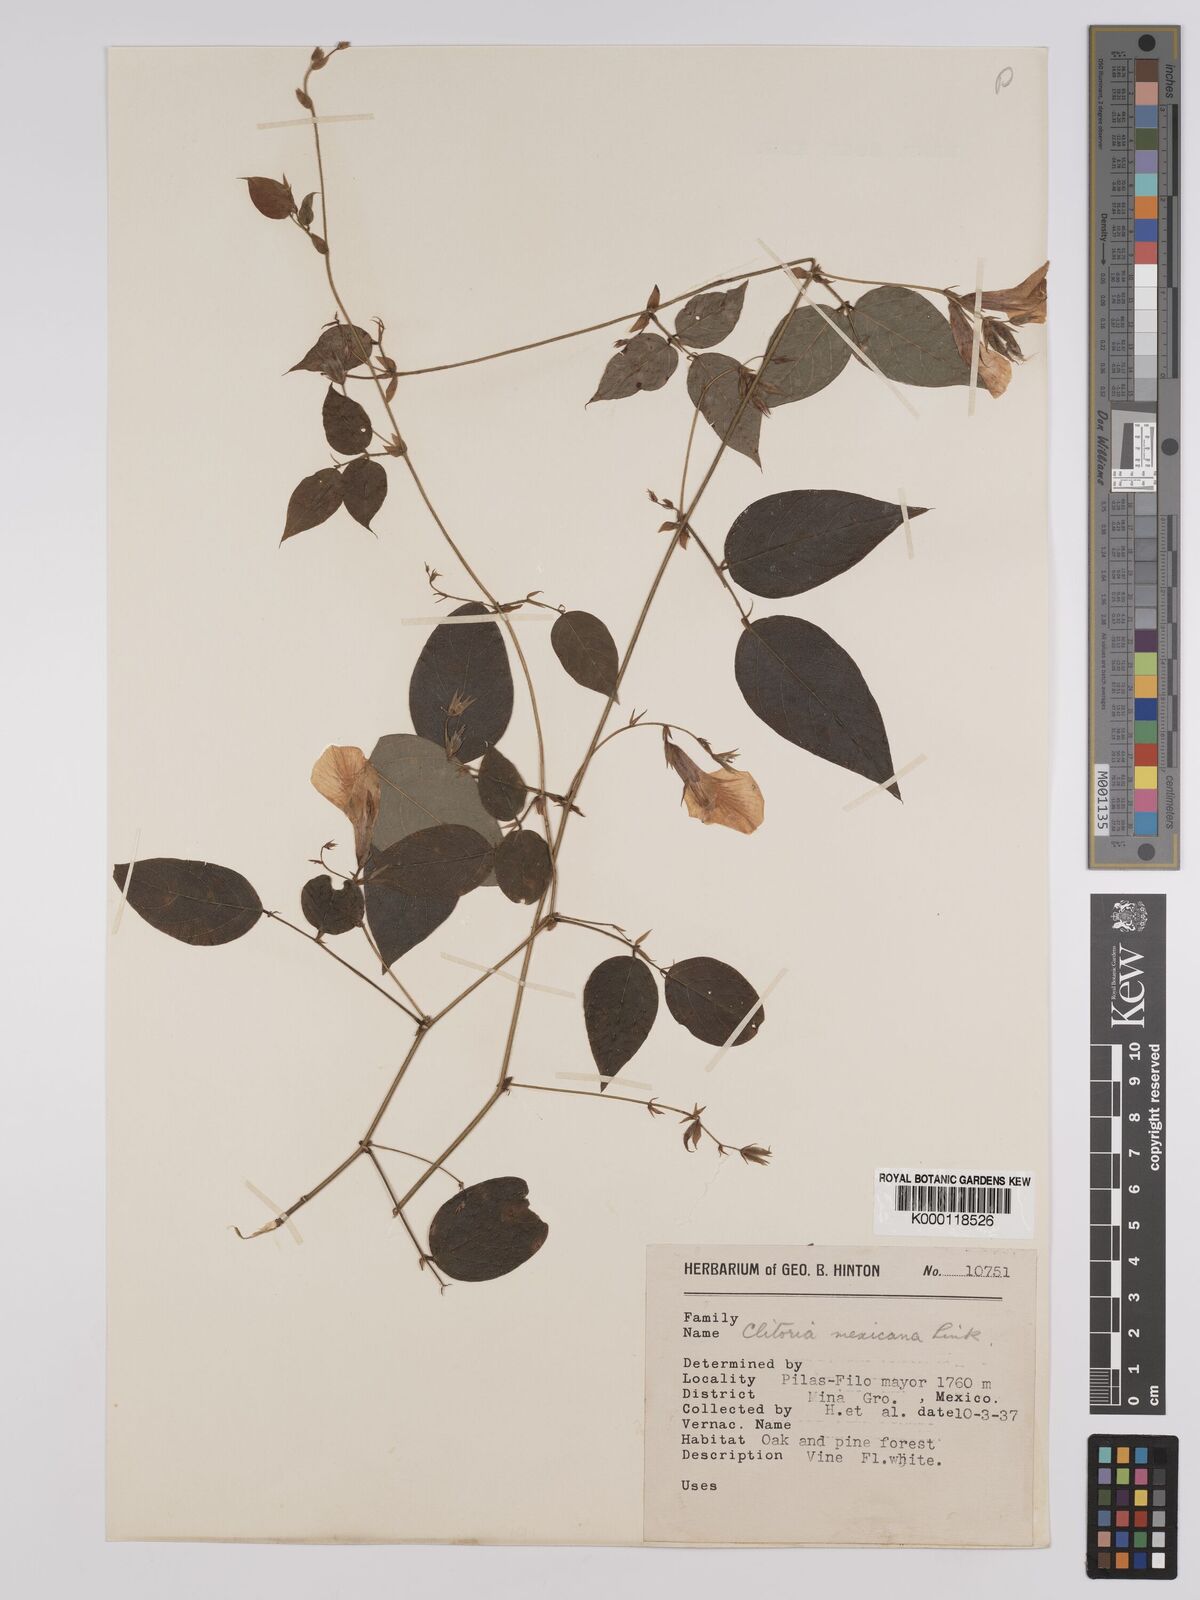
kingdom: Plantae
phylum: Tracheophyta
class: Magnoliopsida
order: Fabales
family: Fabaceae
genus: Clitoria
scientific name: Clitoria mexicana
